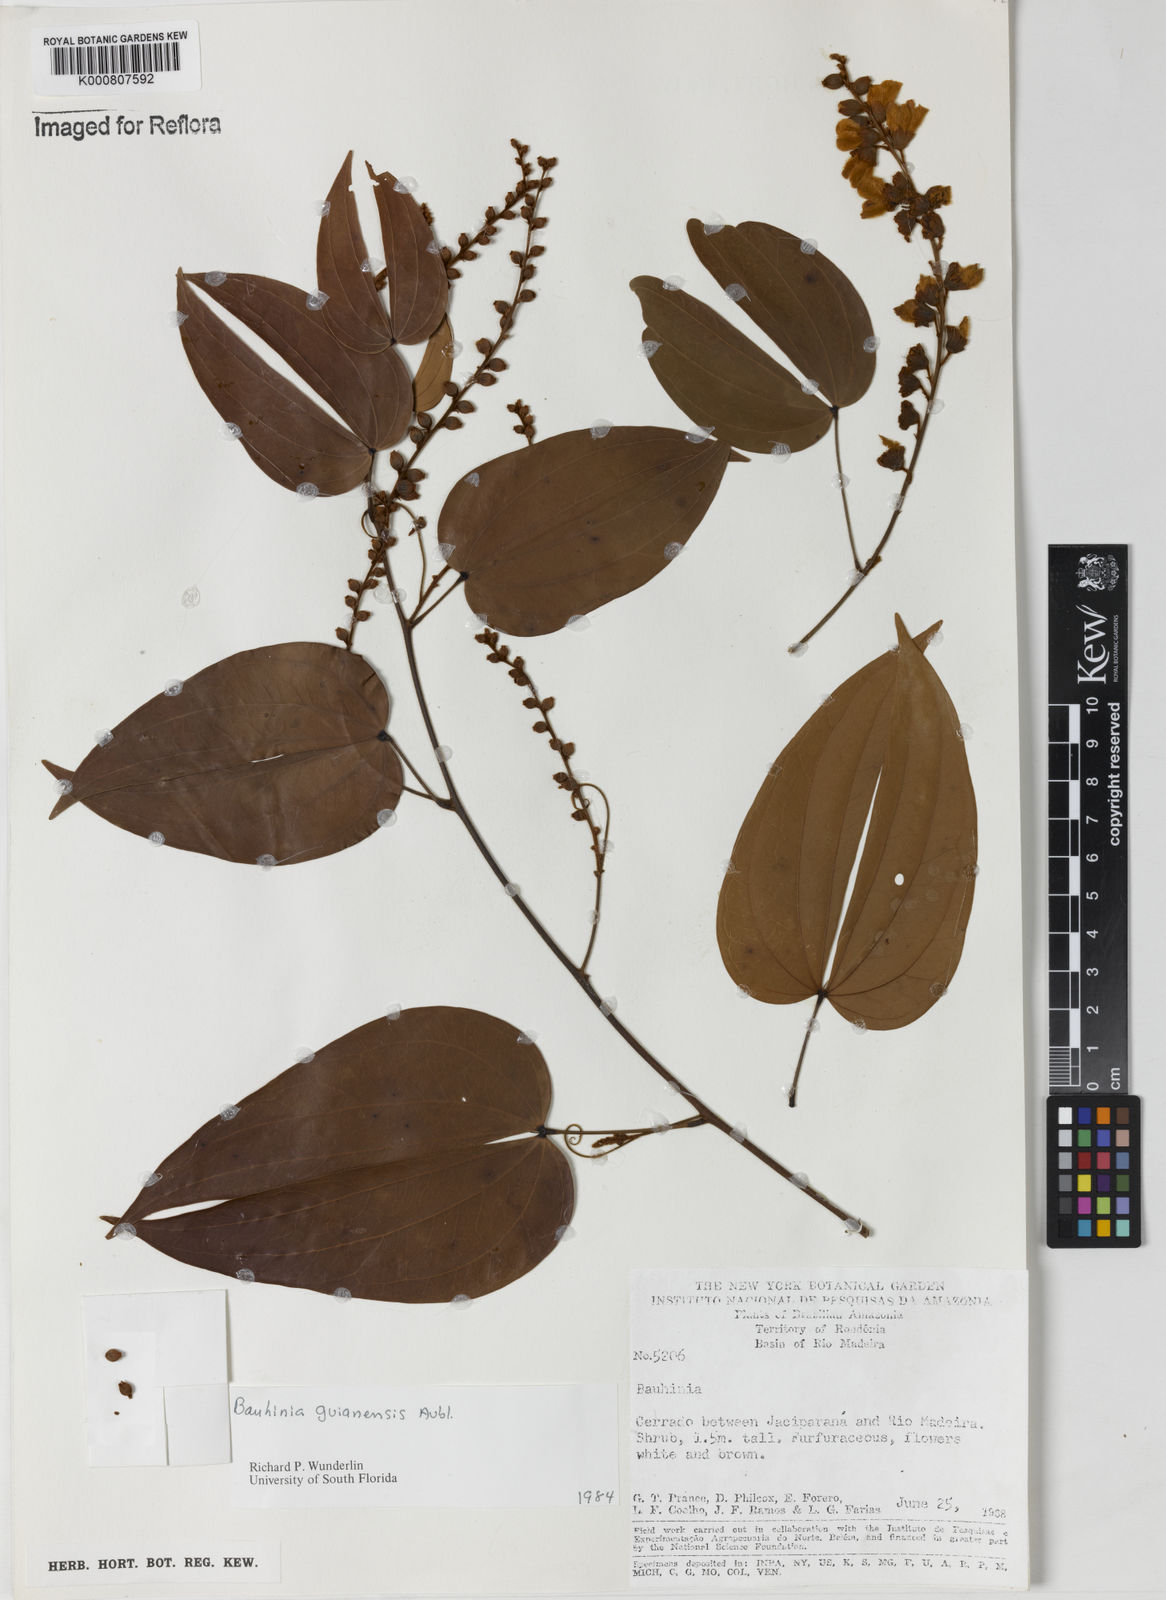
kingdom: Plantae
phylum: Tracheophyta
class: Magnoliopsida
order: Fabales
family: Fabaceae
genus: Schnella
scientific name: Schnella guianensis
